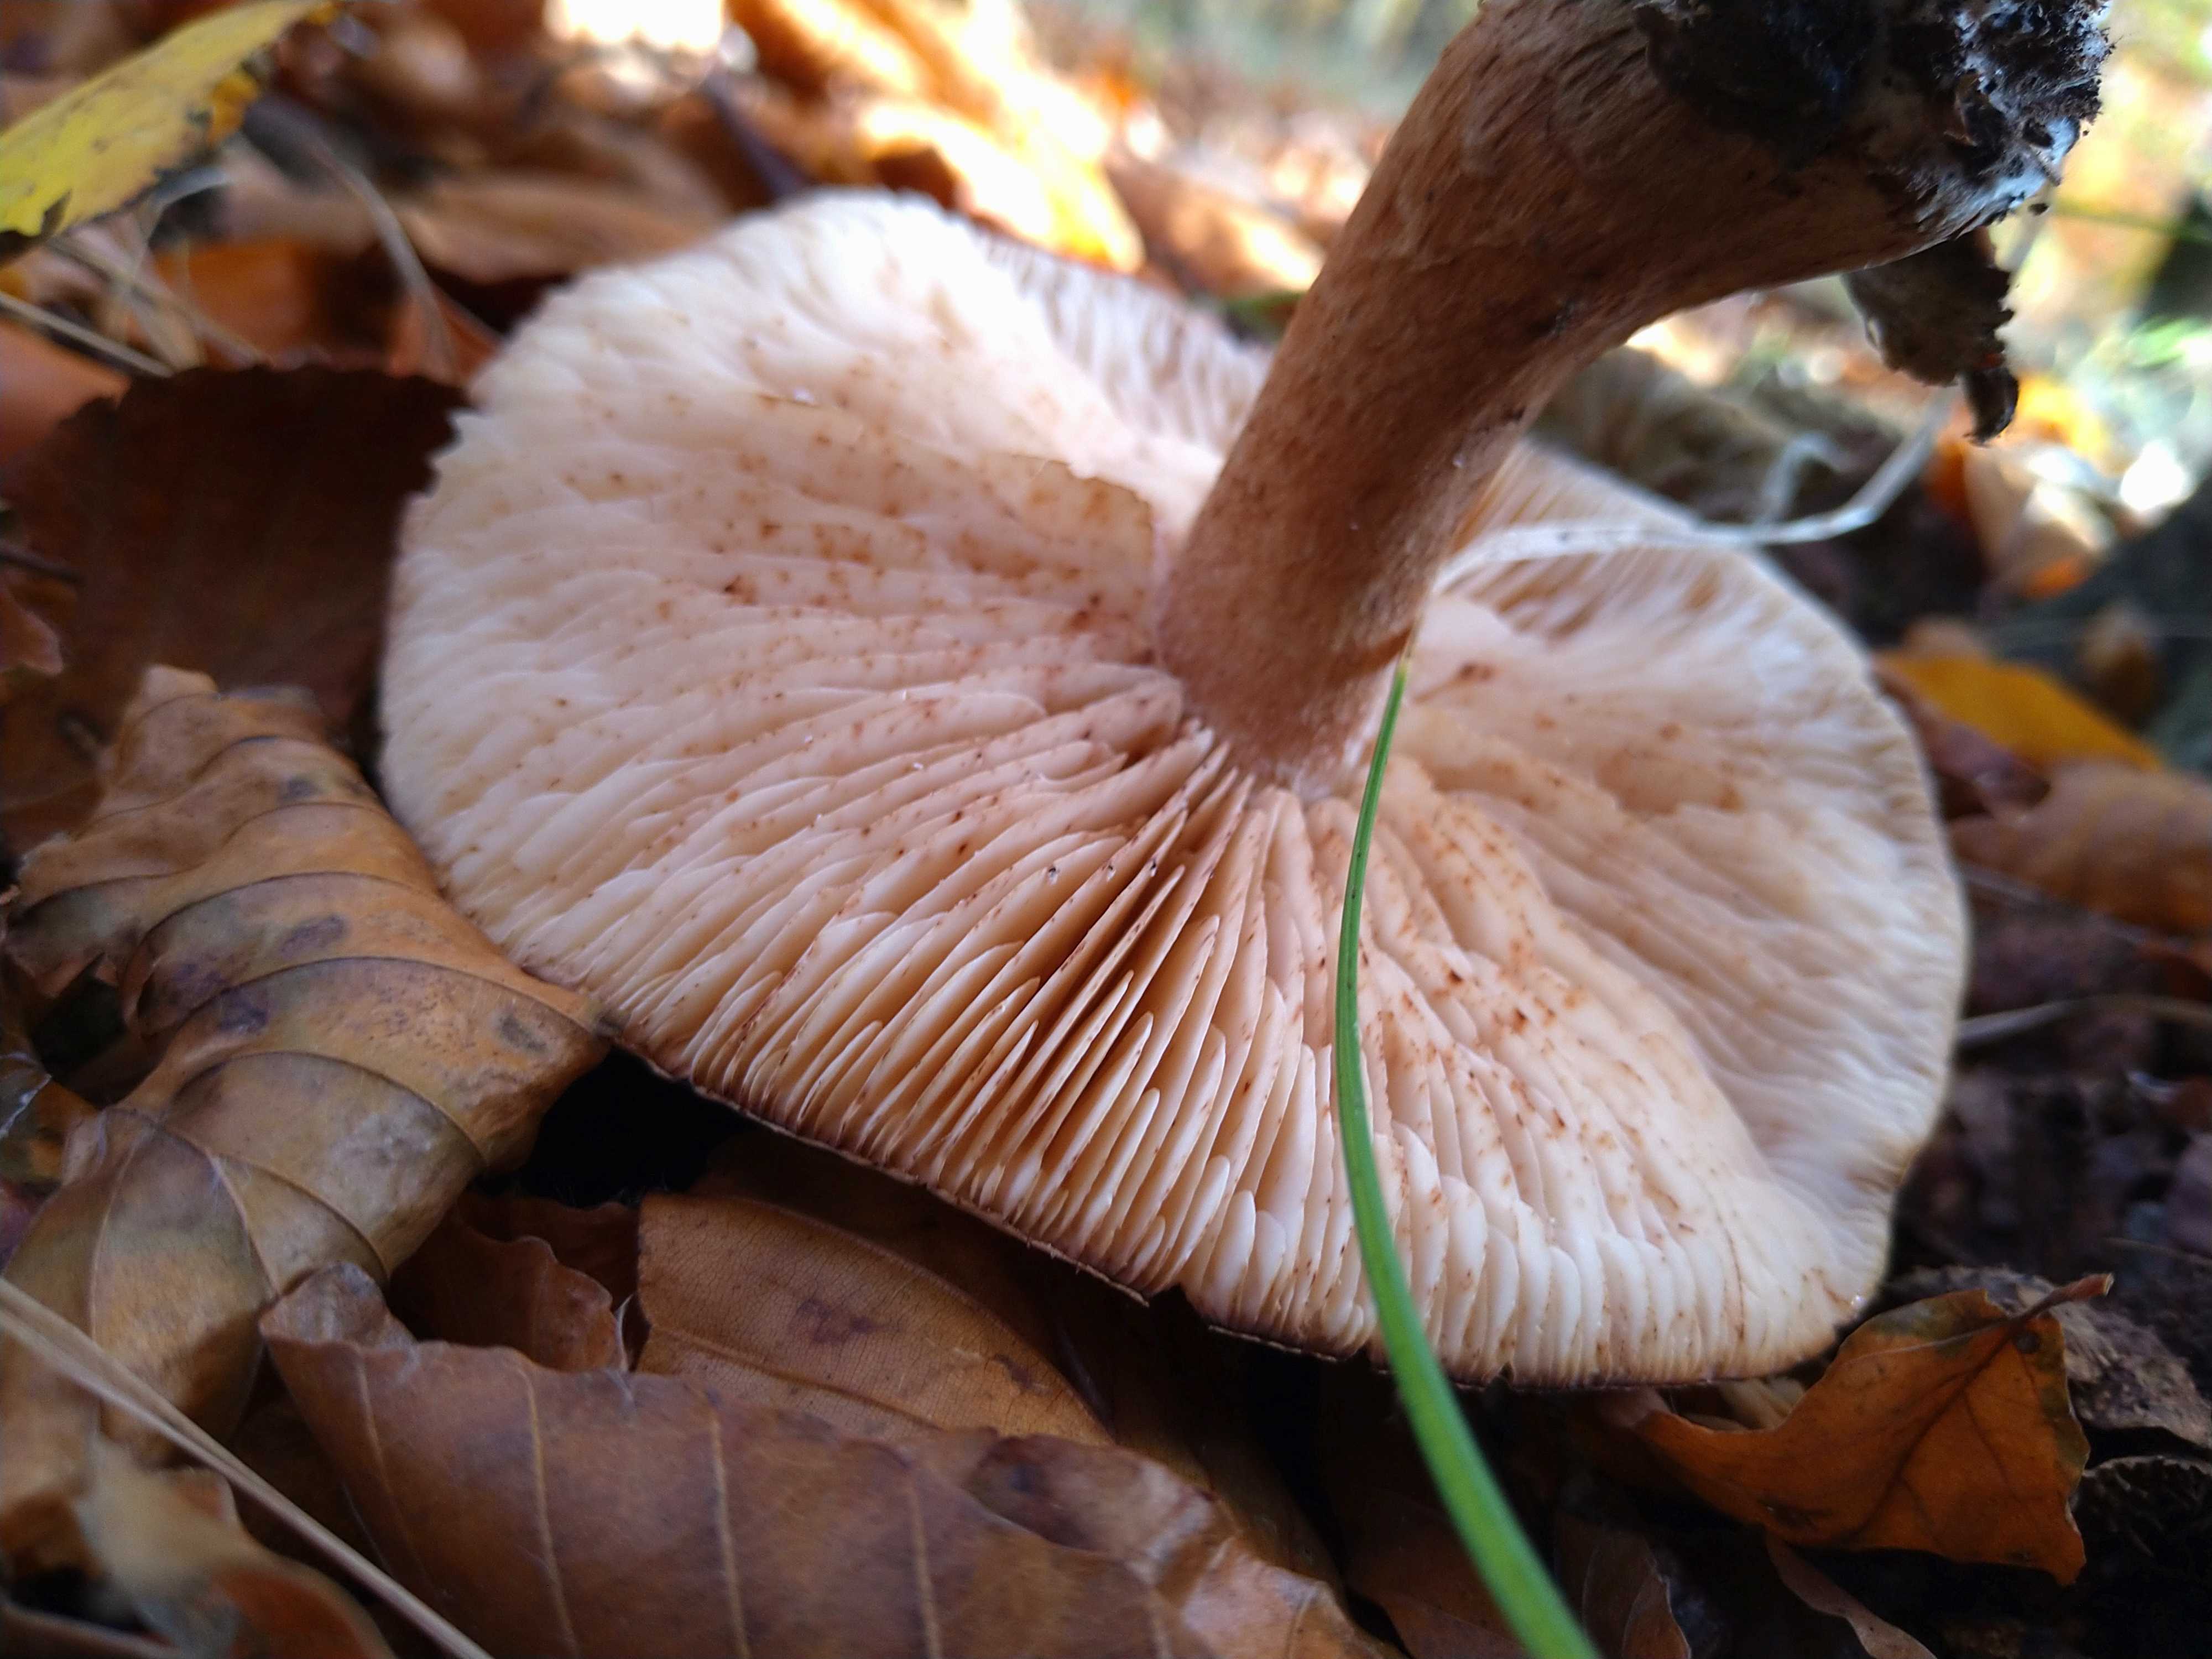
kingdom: Fungi
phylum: Basidiomycota
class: Agaricomycetes
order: Agaricales
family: Tricholomataceae
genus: Tricholoma
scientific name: Tricholoma
